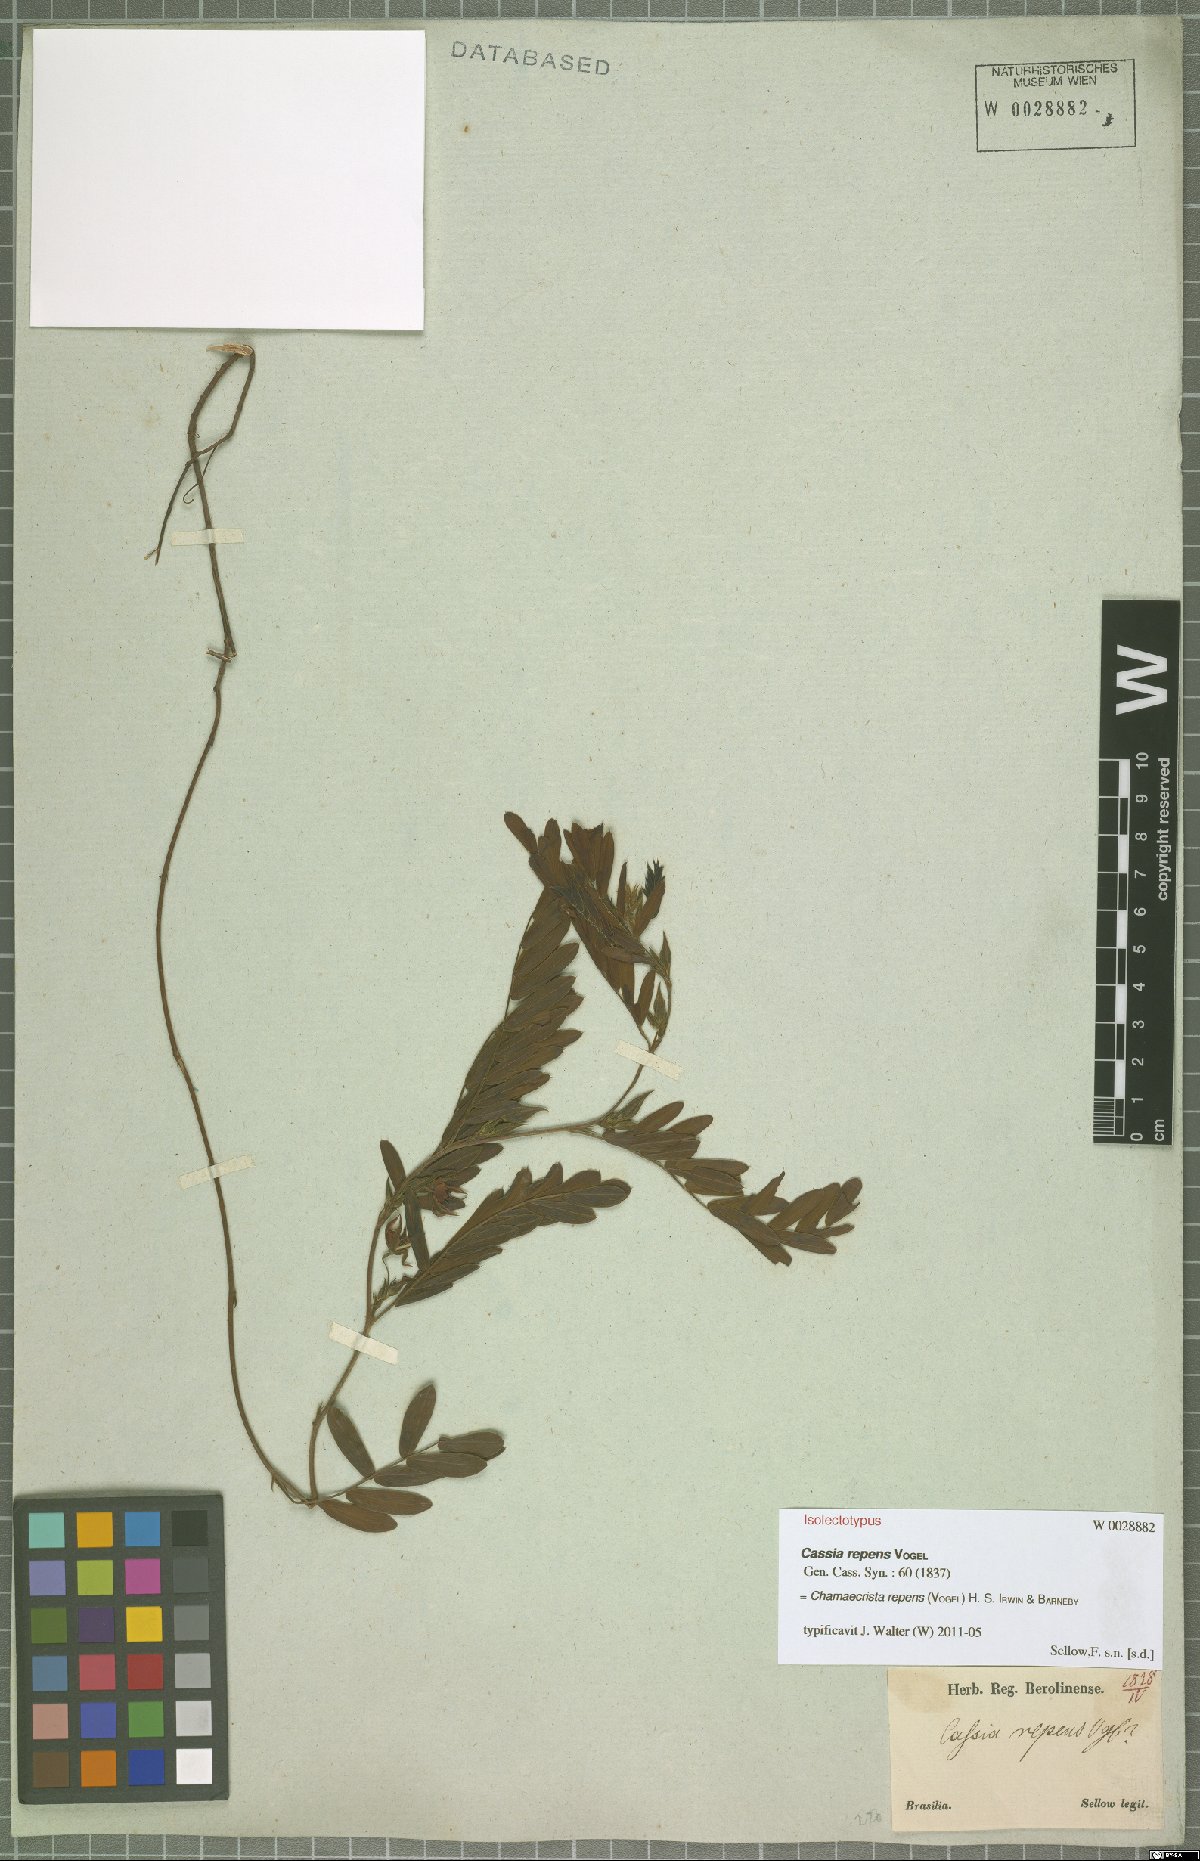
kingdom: Plantae
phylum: Tracheophyta
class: Magnoliopsida
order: Fabales
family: Fabaceae
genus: Chamaecrista
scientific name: Chamaecrista repens
